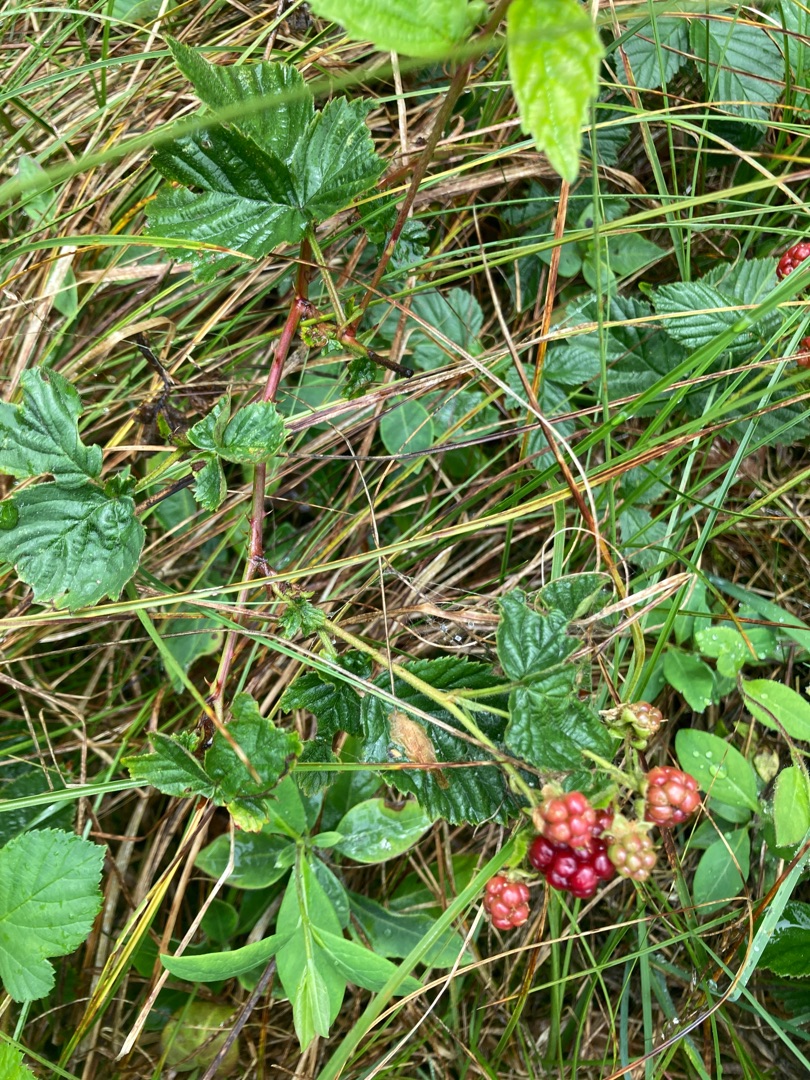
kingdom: Plantae
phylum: Tracheophyta
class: Magnoliopsida
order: Rosales
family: Rosaceae
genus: Rubus
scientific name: Rubus
